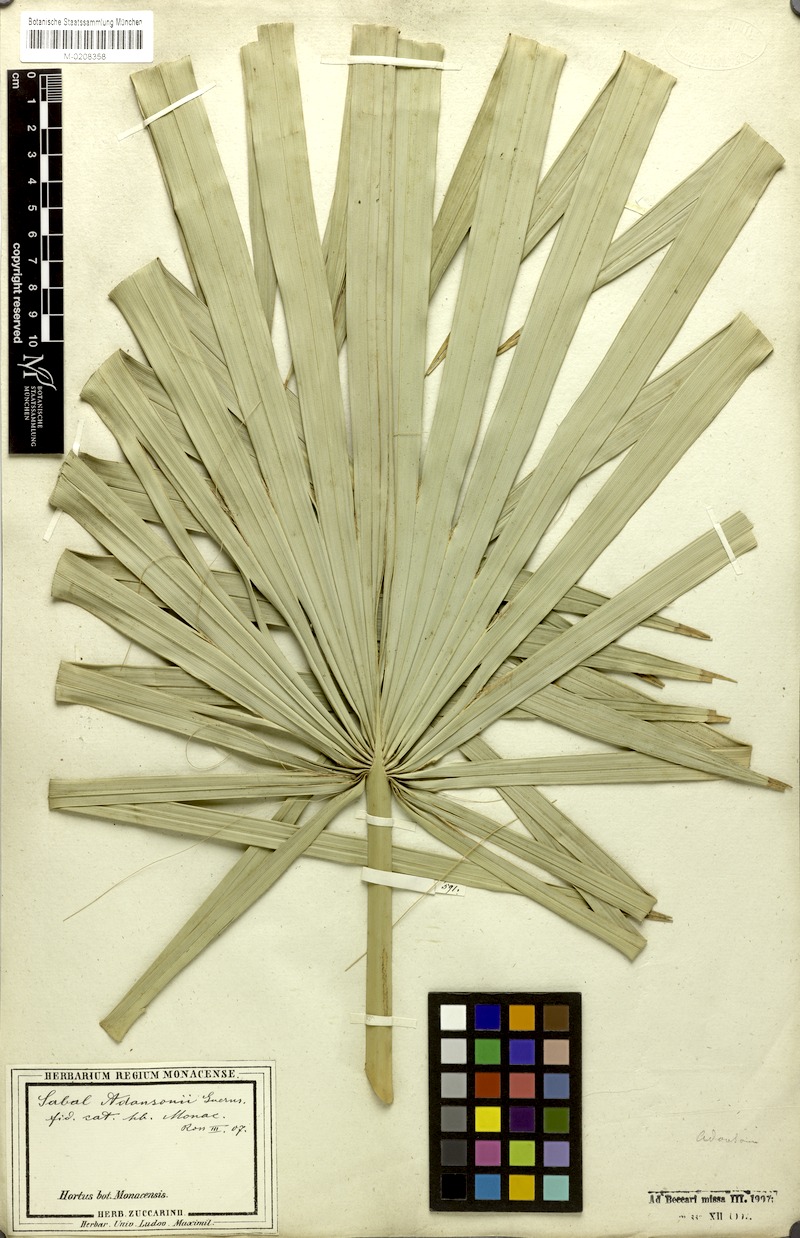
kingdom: Plantae
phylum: Tracheophyta
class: Liliopsida
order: Arecales
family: Arecaceae
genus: Sabal
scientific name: Sabal minor
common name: Dwarf palmetto
